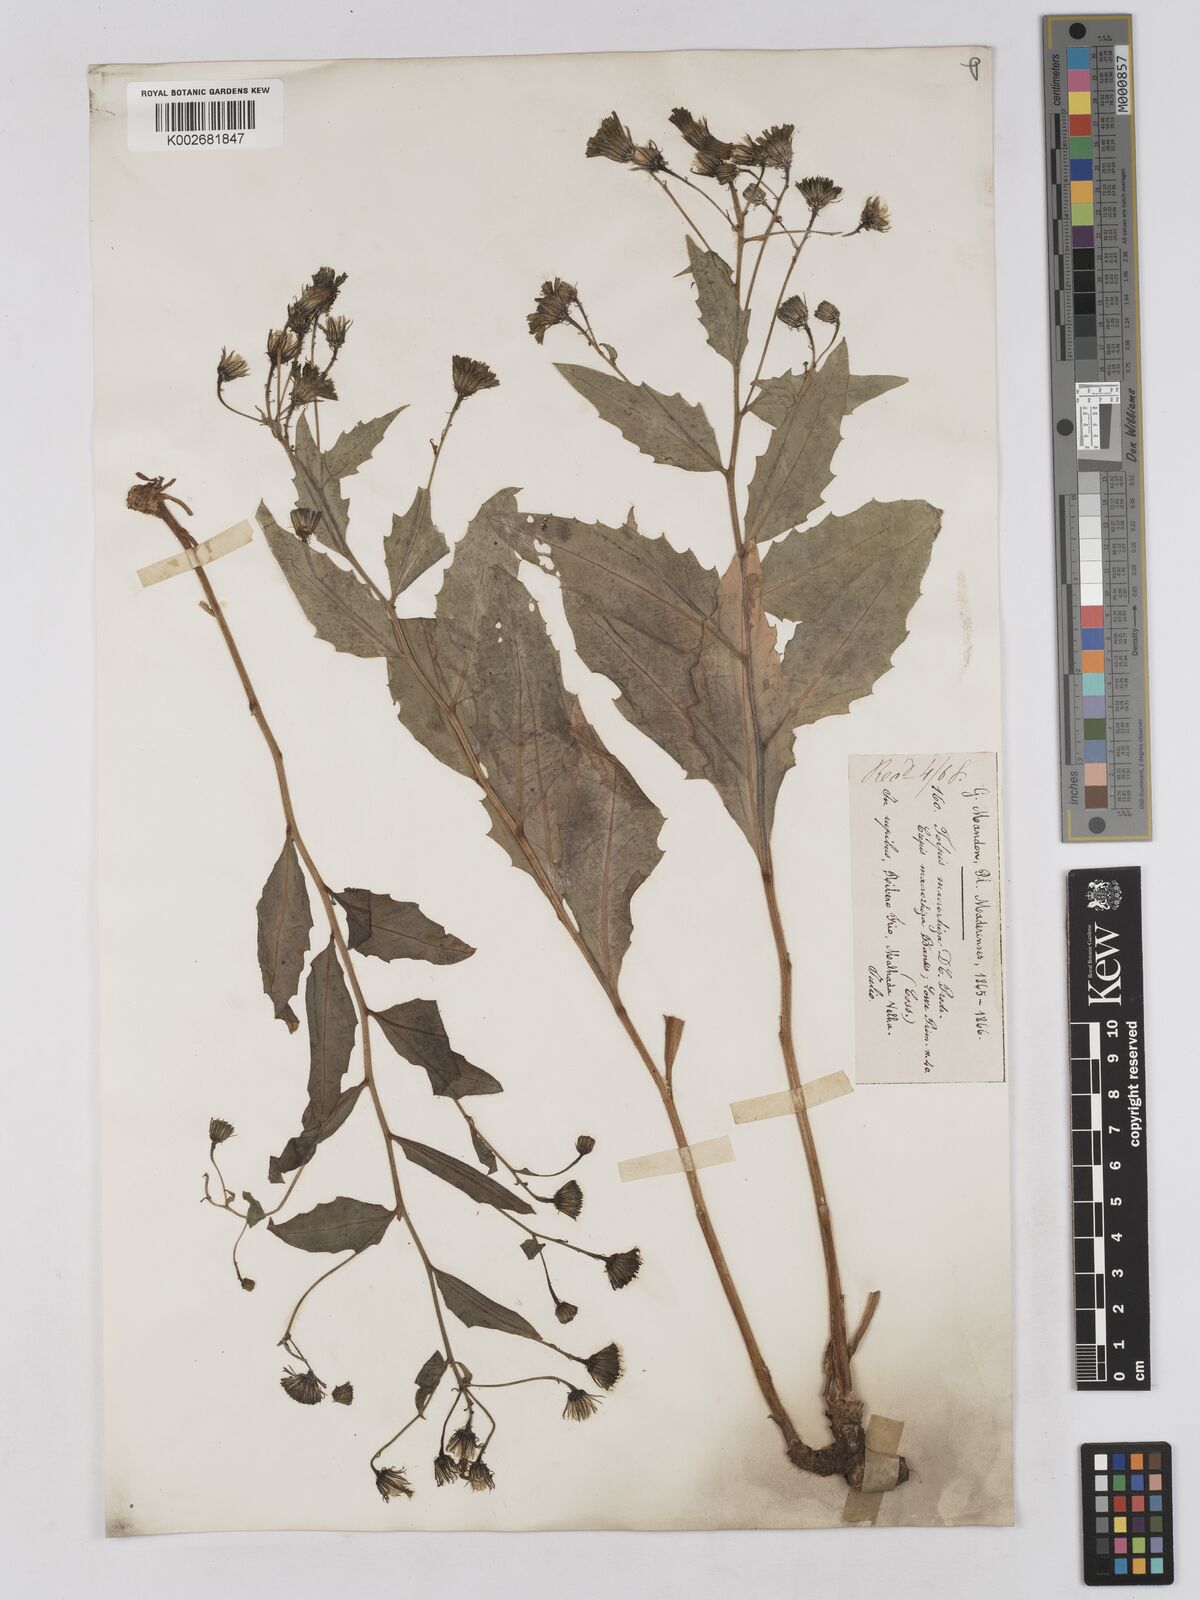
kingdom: Plantae
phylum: Tracheophyta
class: Magnoliopsida
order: Asterales
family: Asteraceae
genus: Tolpis
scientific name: Tolpis macrorhiza
